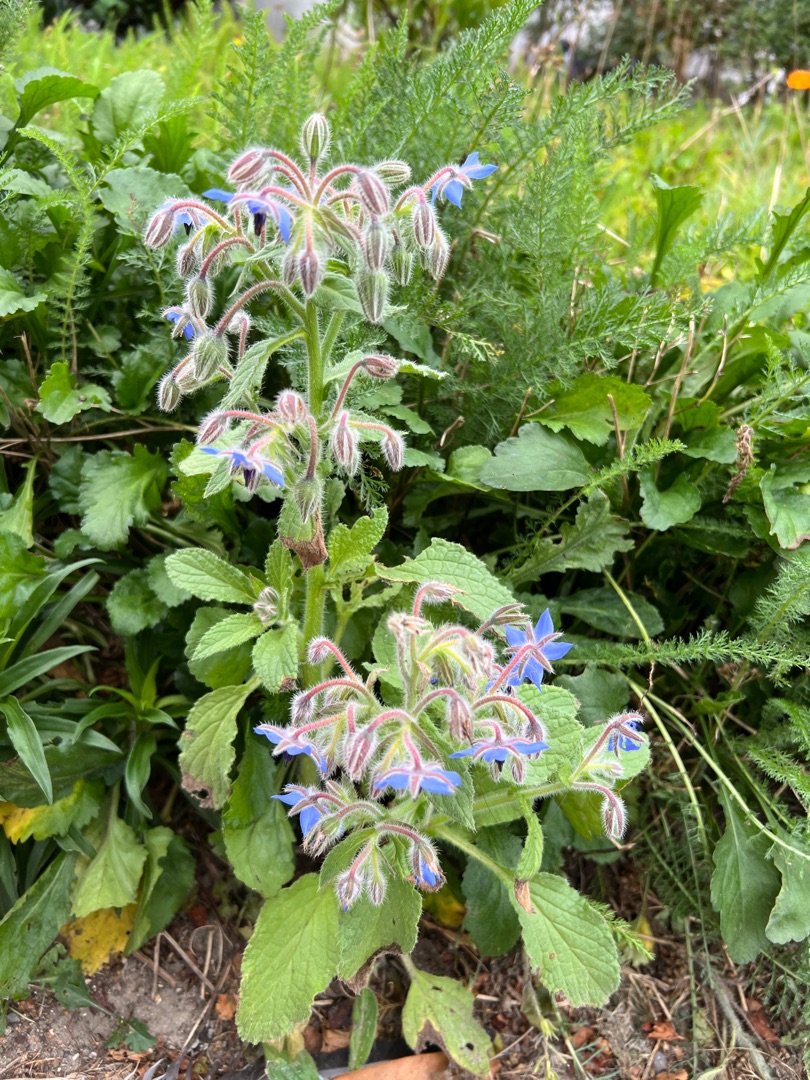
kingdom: Plantae
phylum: Tracheophyta
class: Magnoliopsida
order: Boraginales
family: Boraginaceae
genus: Borago
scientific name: Borago officinalis
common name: Hjulkrone
